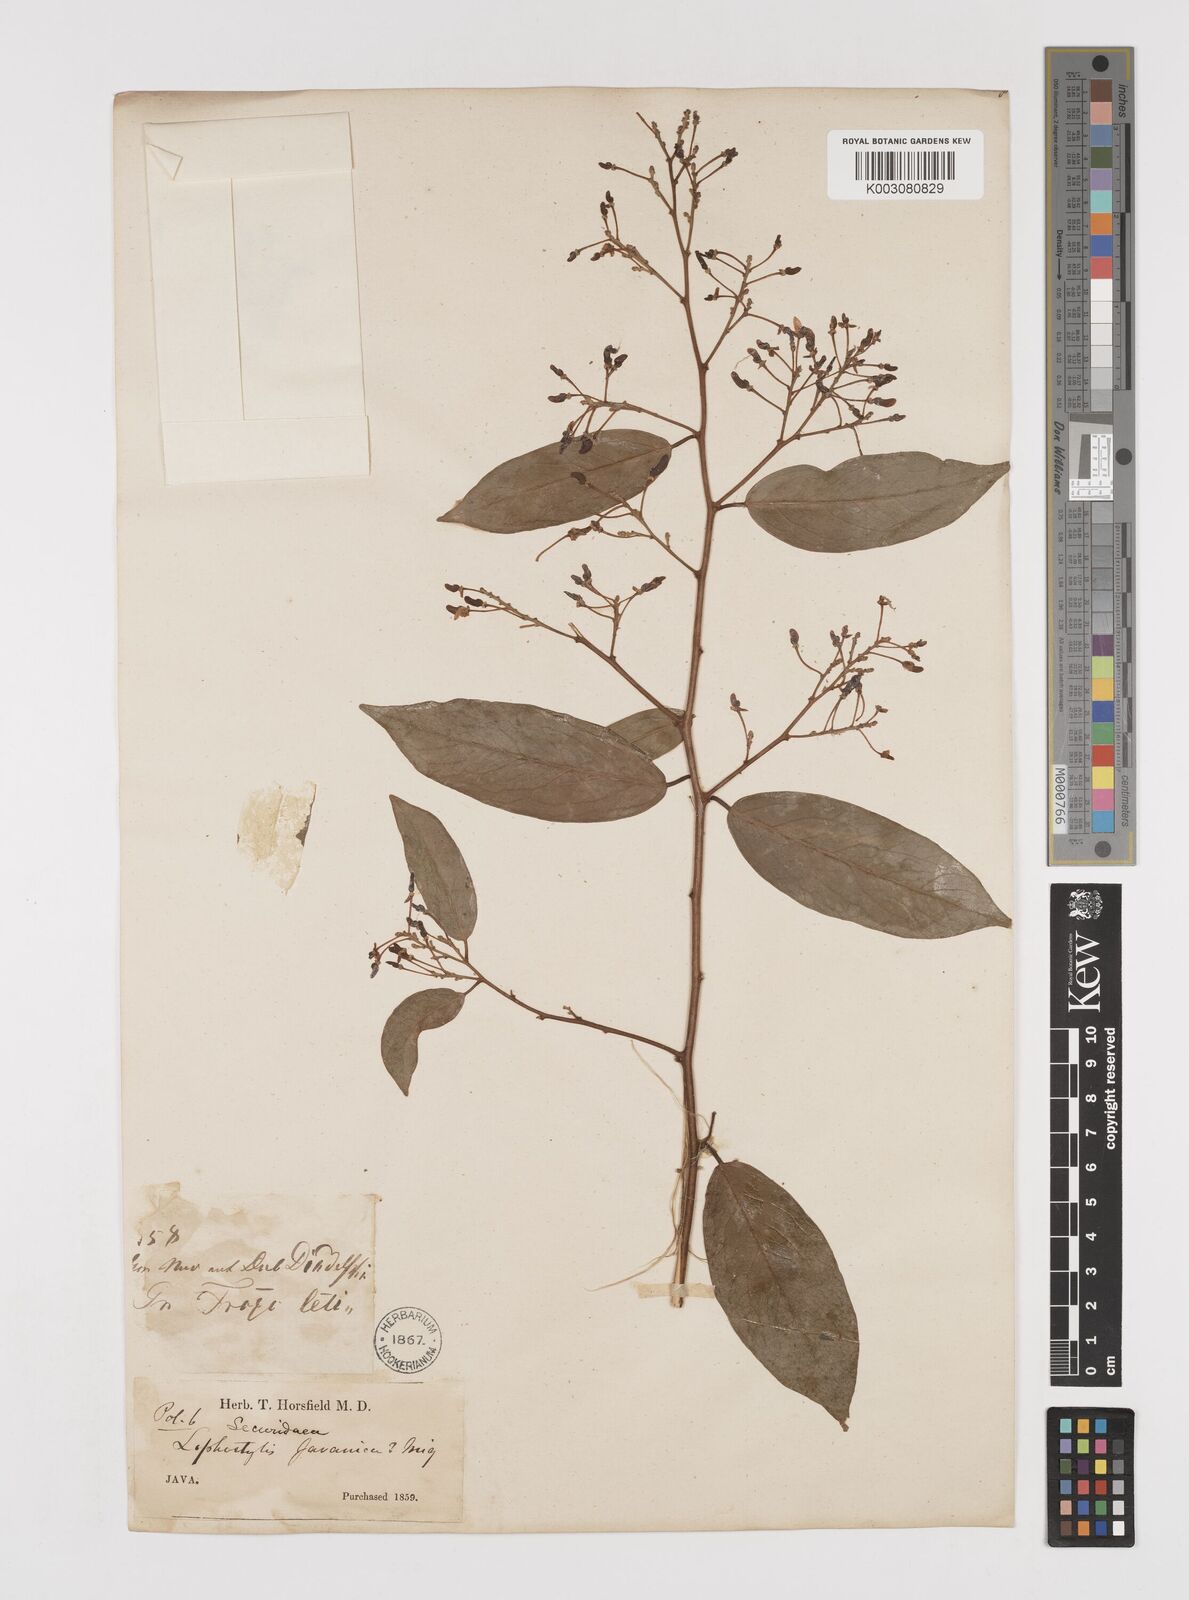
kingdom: Plantae
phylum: Tracheophyta
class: Magnoliopsida
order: Fabales
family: Polygalaceae
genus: Securidaca
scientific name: Securidaca inappendiculata
